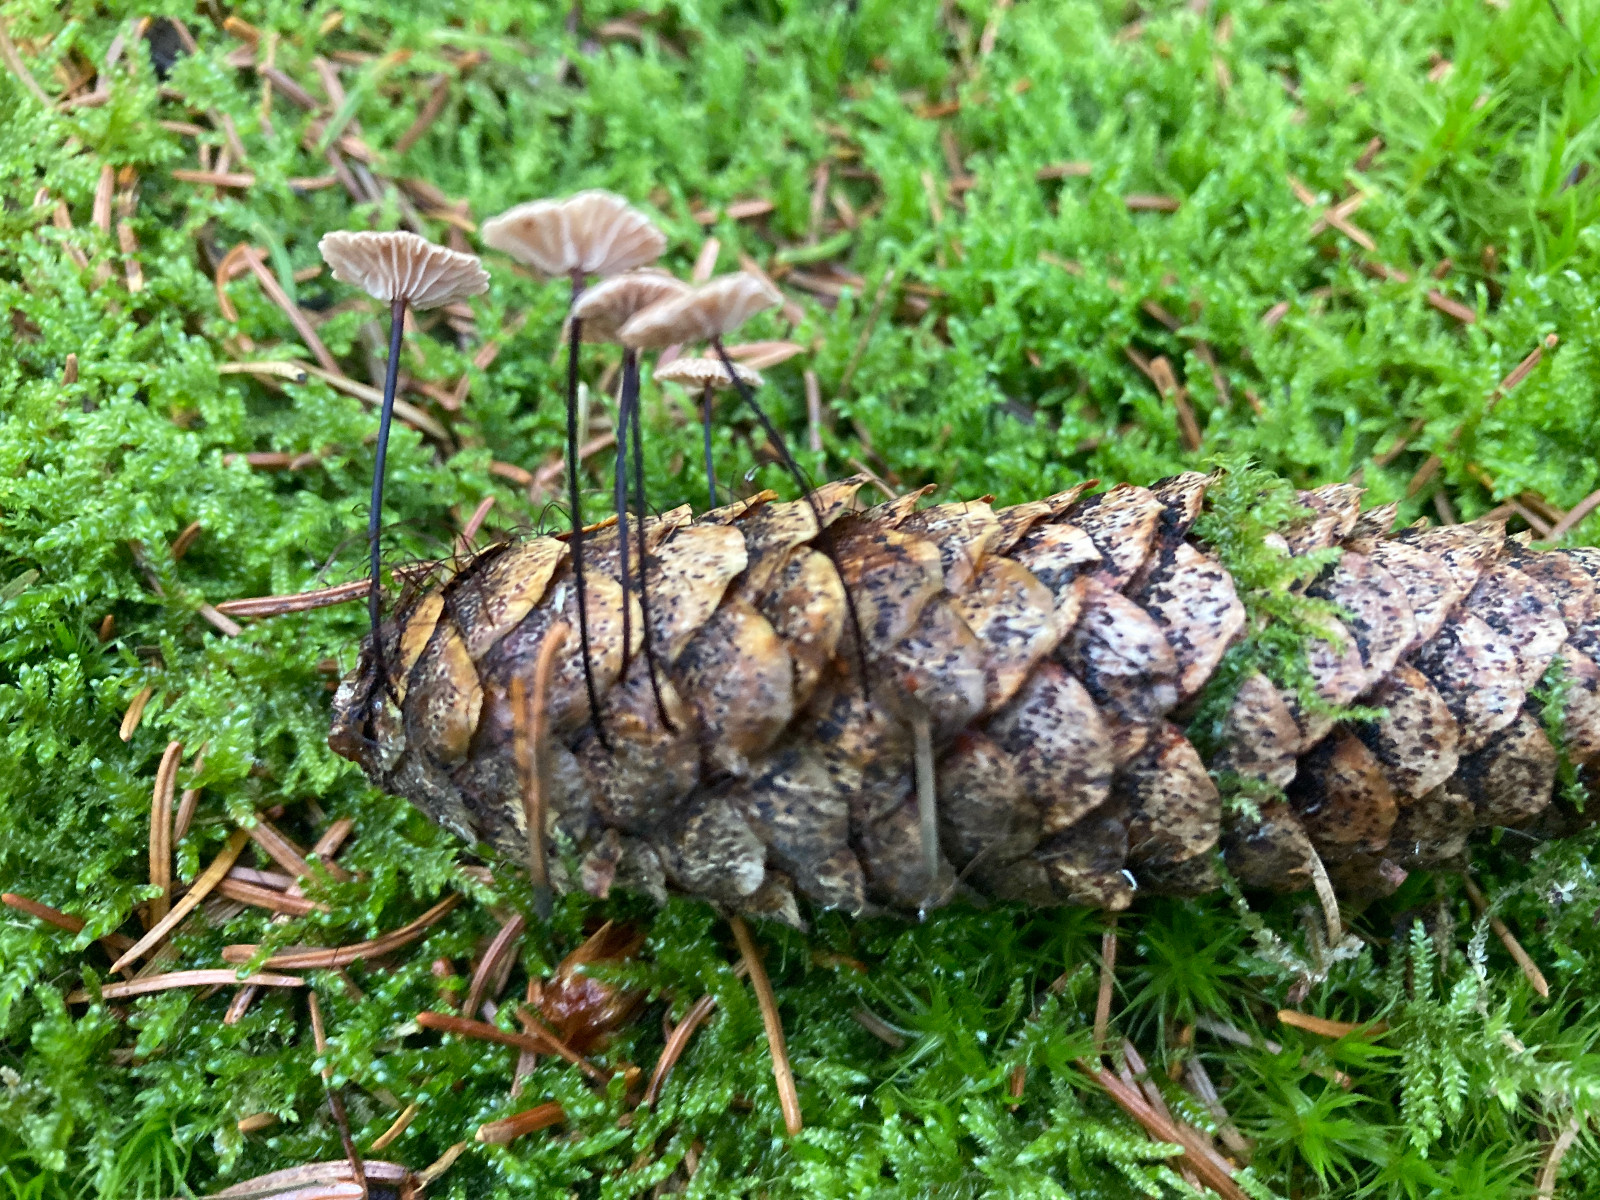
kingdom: Fungi
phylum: Basidiomycota
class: Agaricomycetes
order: Agaricales
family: Omphalotaceae
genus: Paragymnopus
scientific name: Paragymnopus perforans
